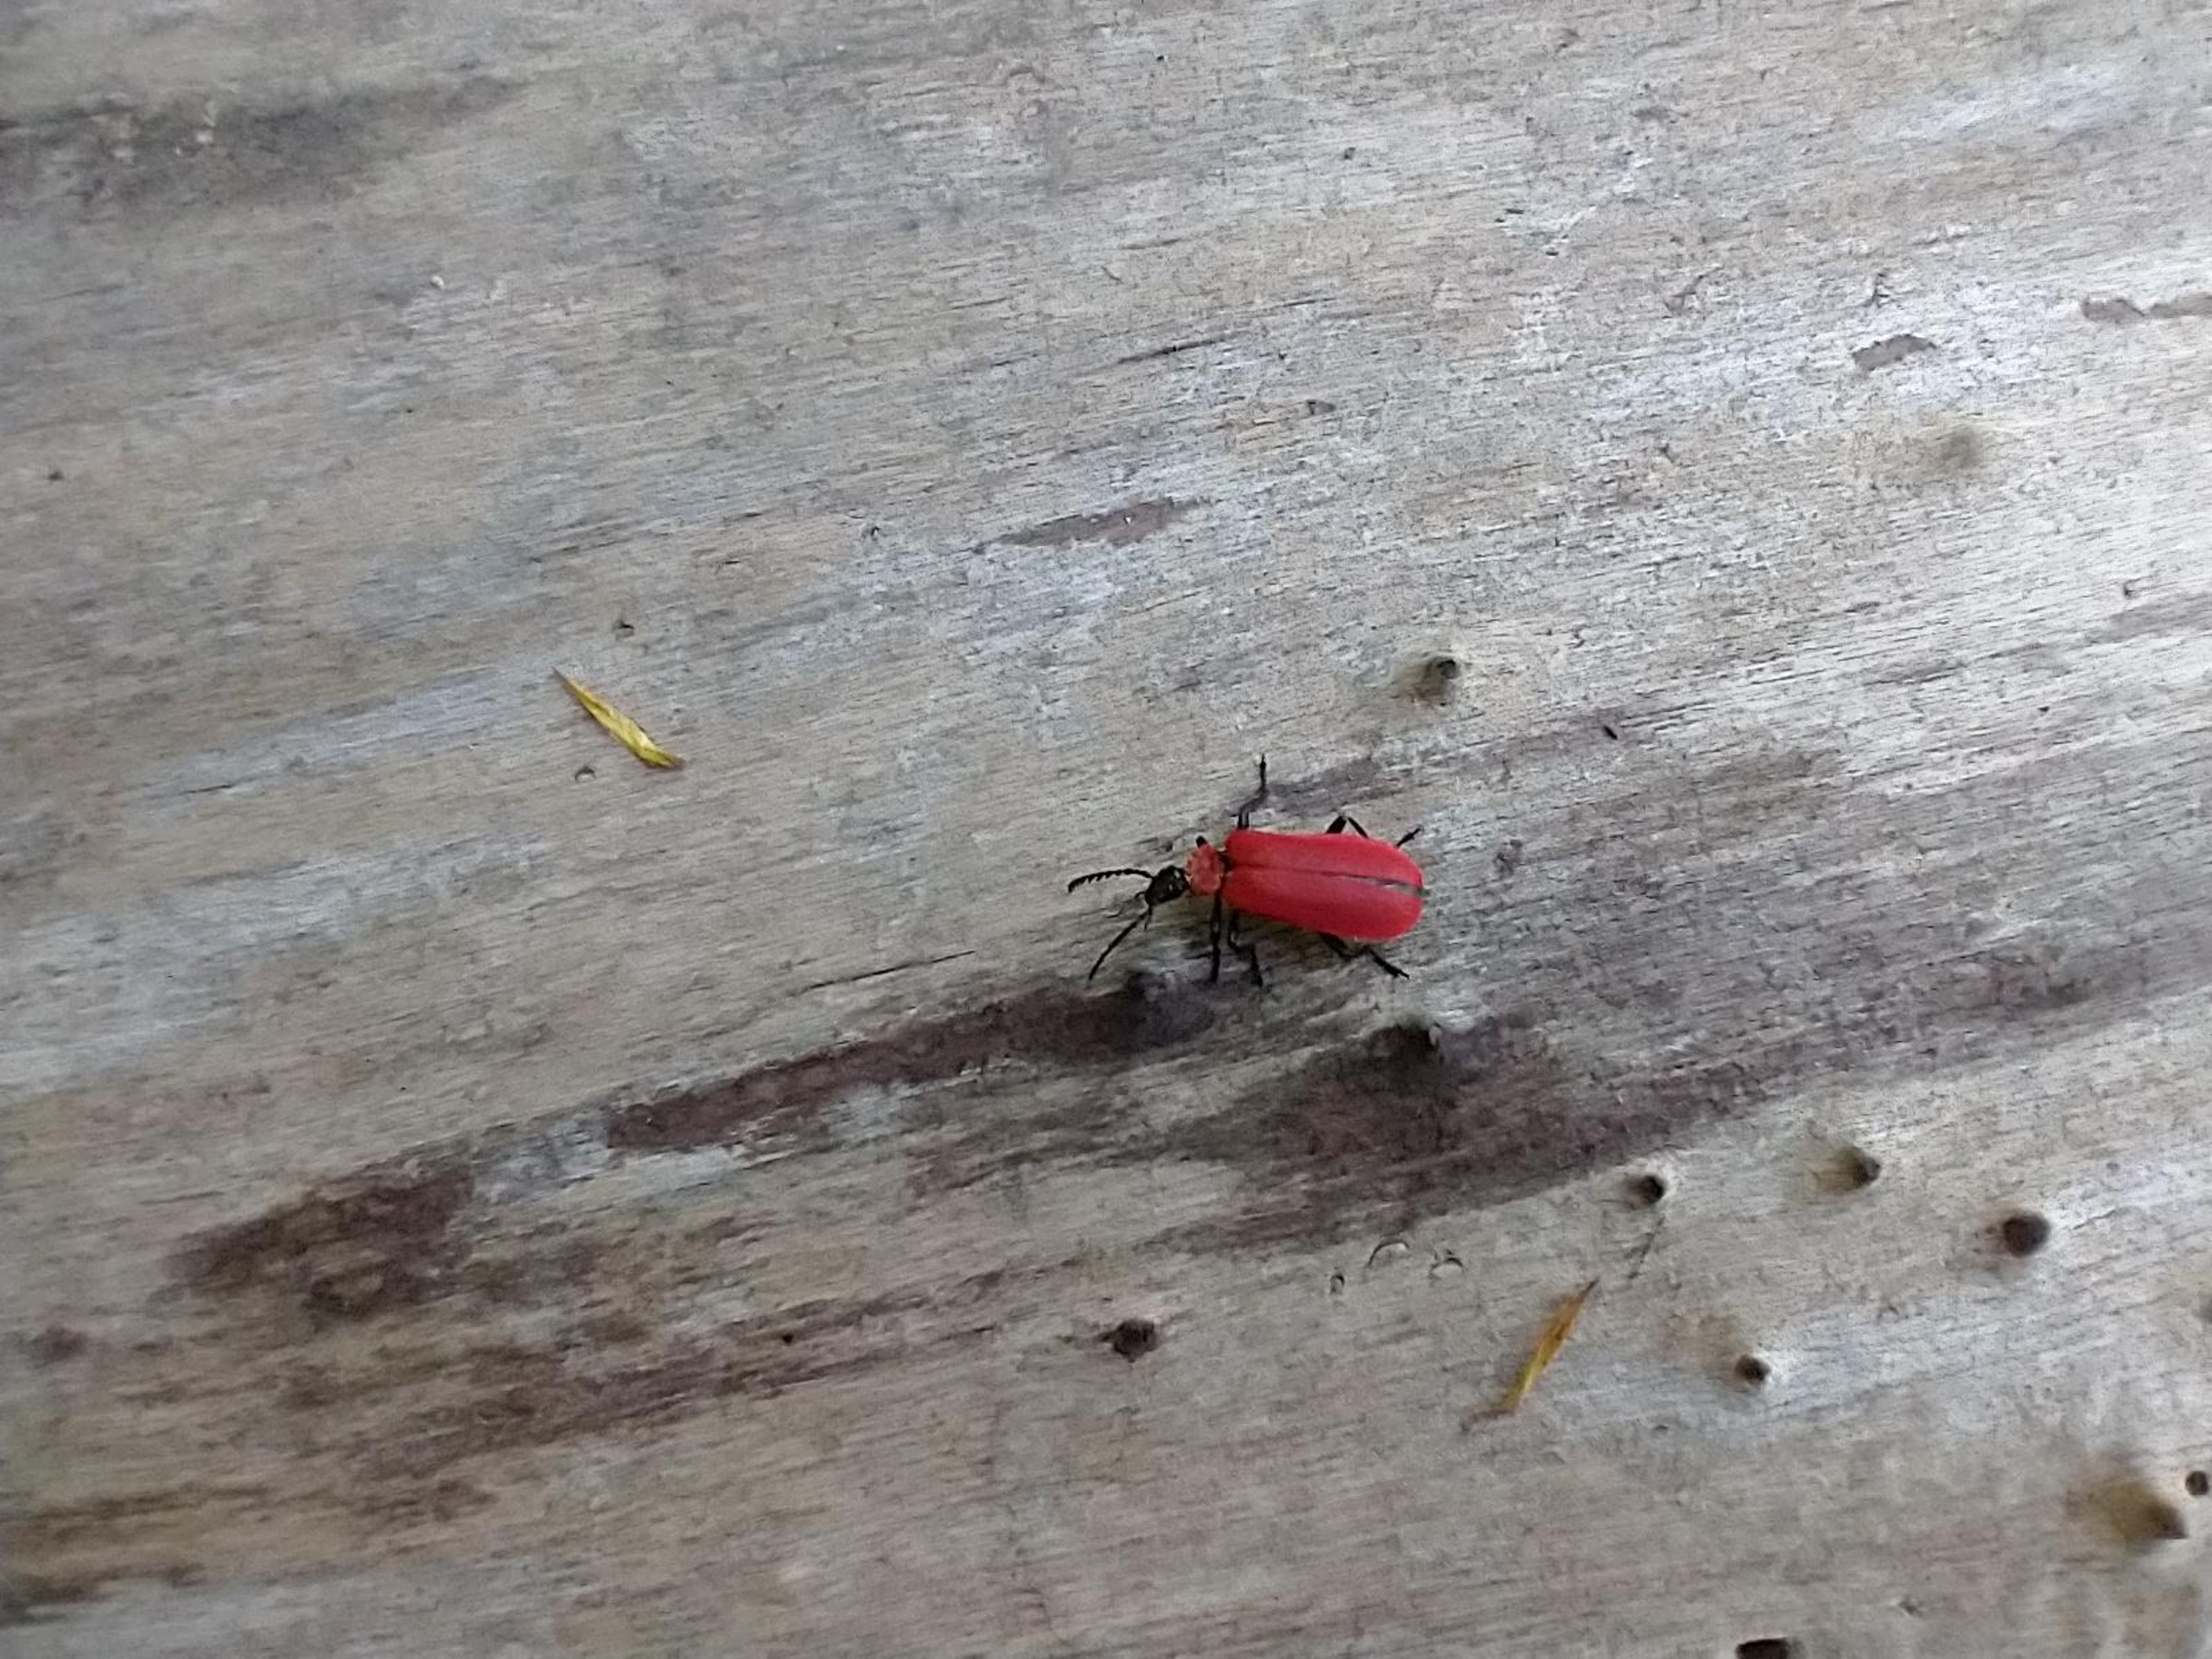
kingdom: Animalia
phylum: Arthropoda
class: Insecta
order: Coleoptera
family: Pyrochroidae
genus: Pyrochroa
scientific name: Pyrochroa coccinea
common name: Sorthovedet kardinalbille
